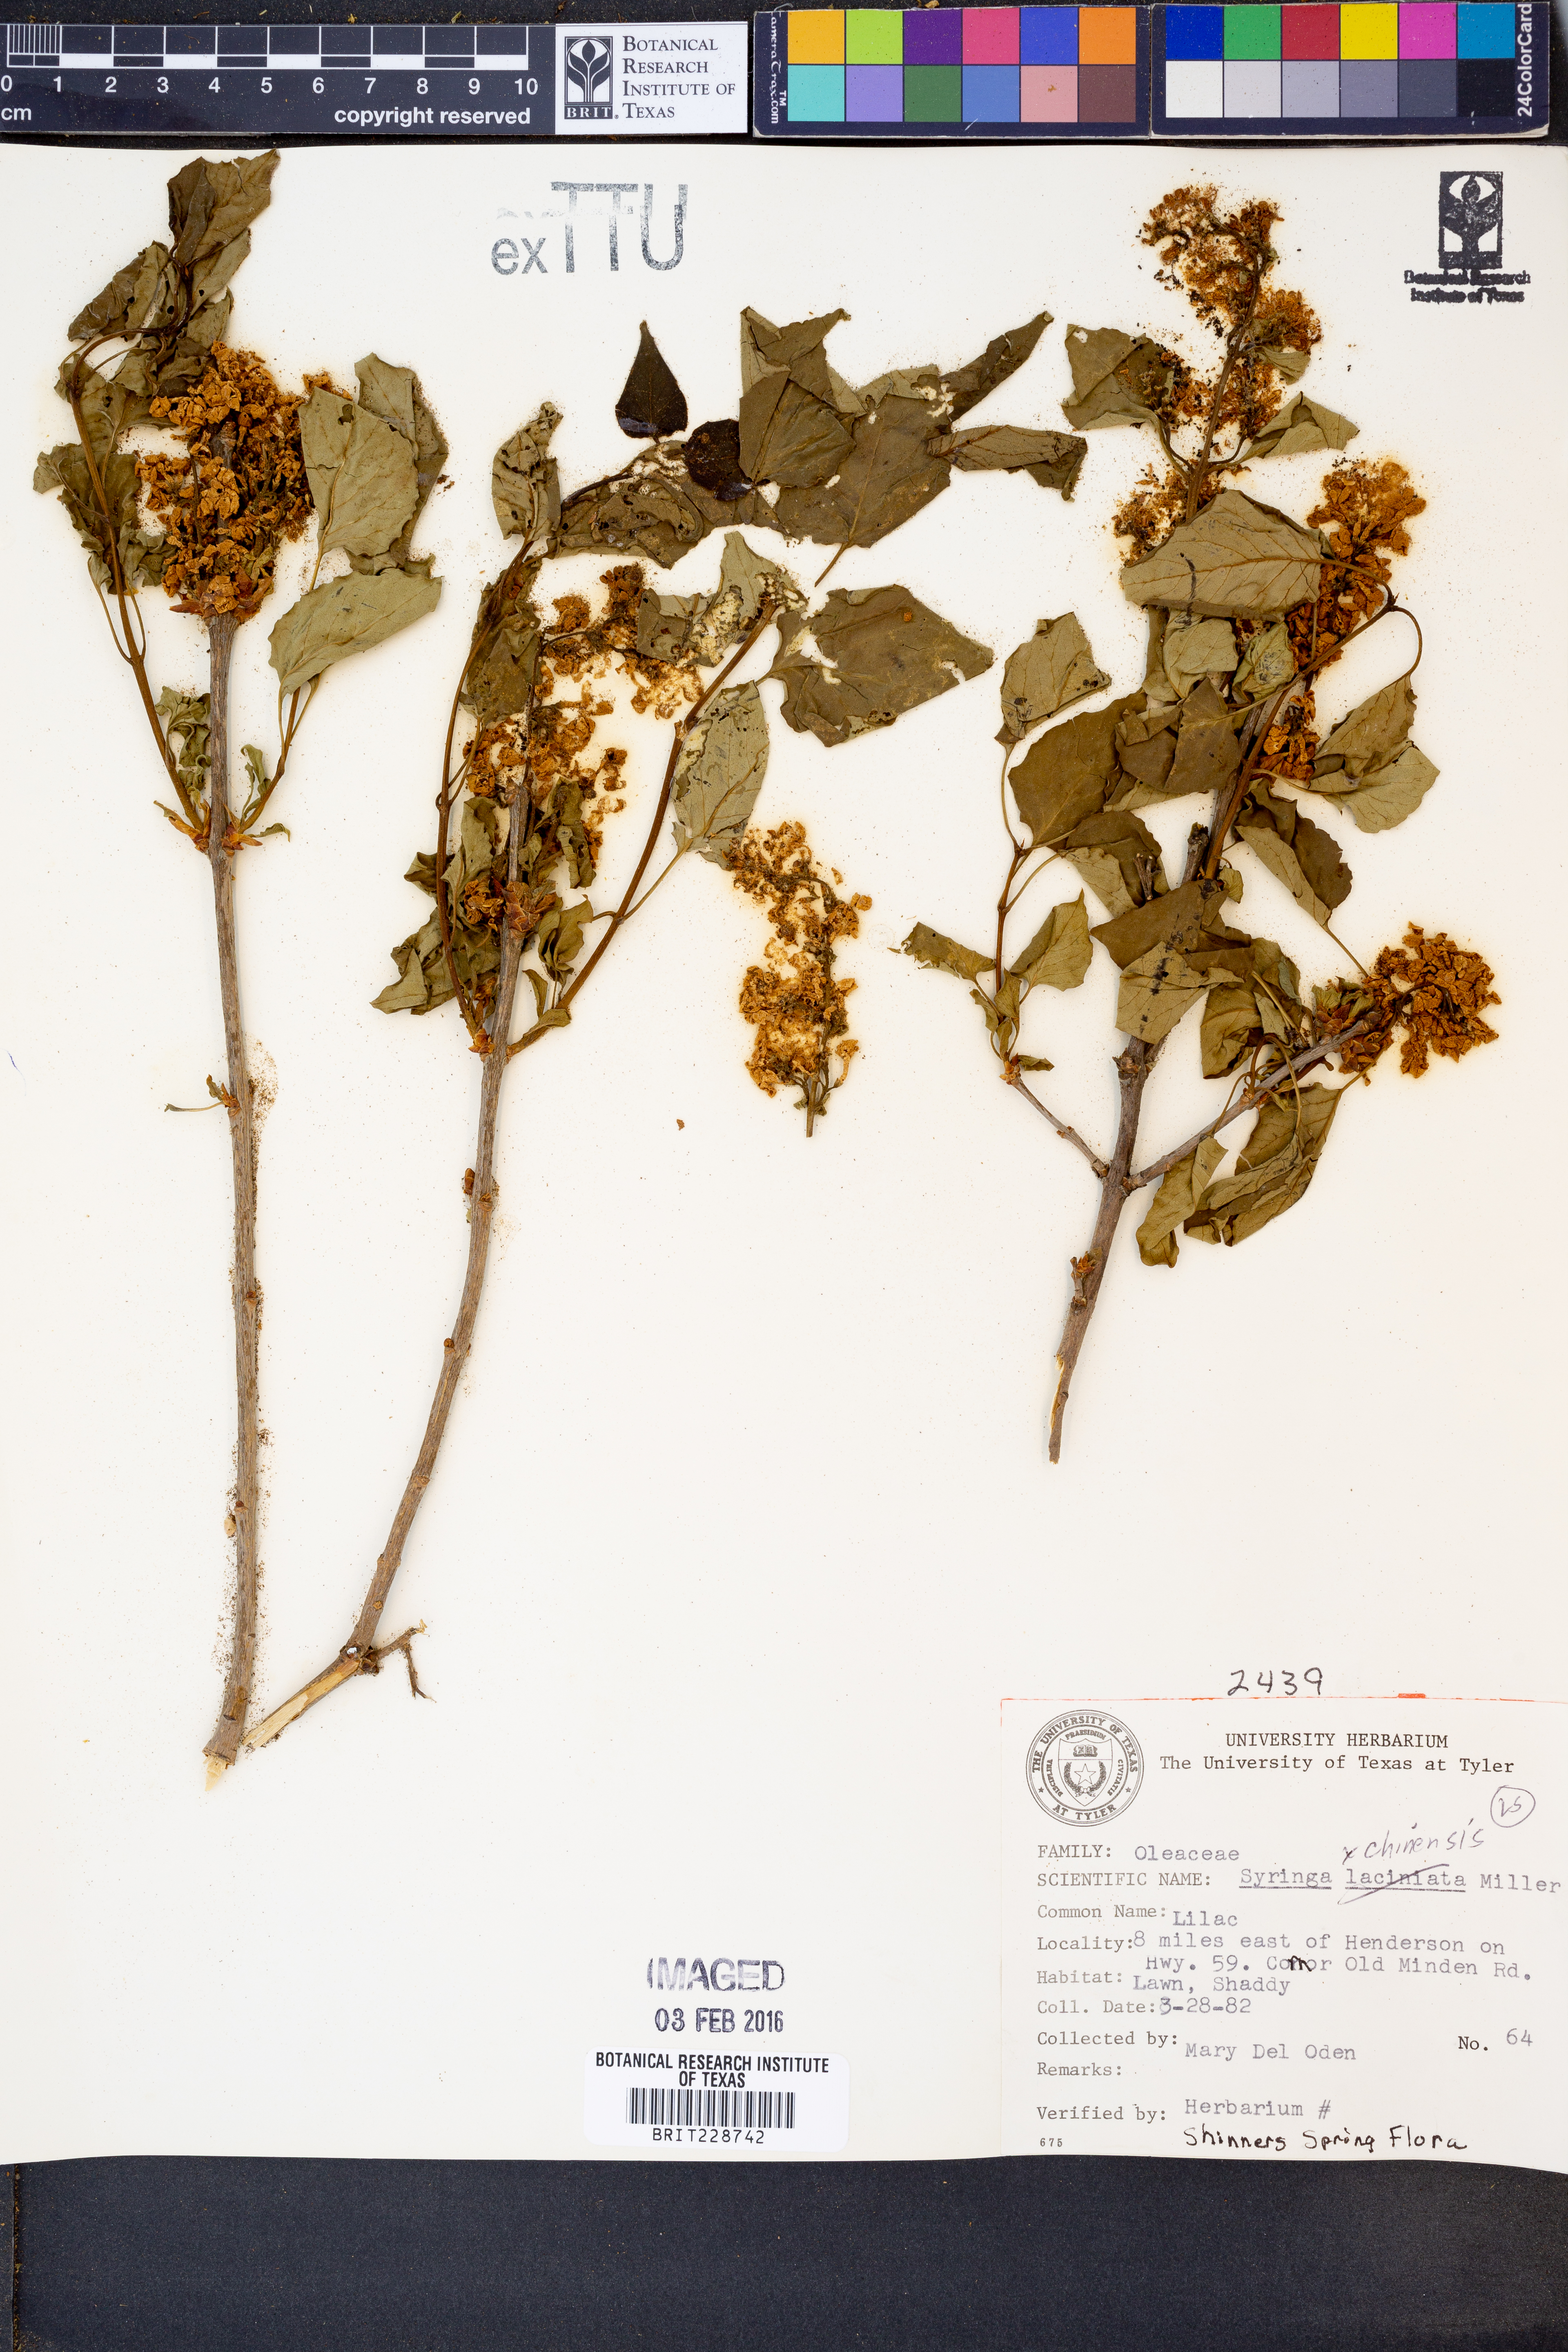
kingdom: Plantae
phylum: Tracheophyta
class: Magnoliopsida
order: Lamiales
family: Oleaceae
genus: Syringa
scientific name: Syringa chinensis
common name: Chinese lilac
